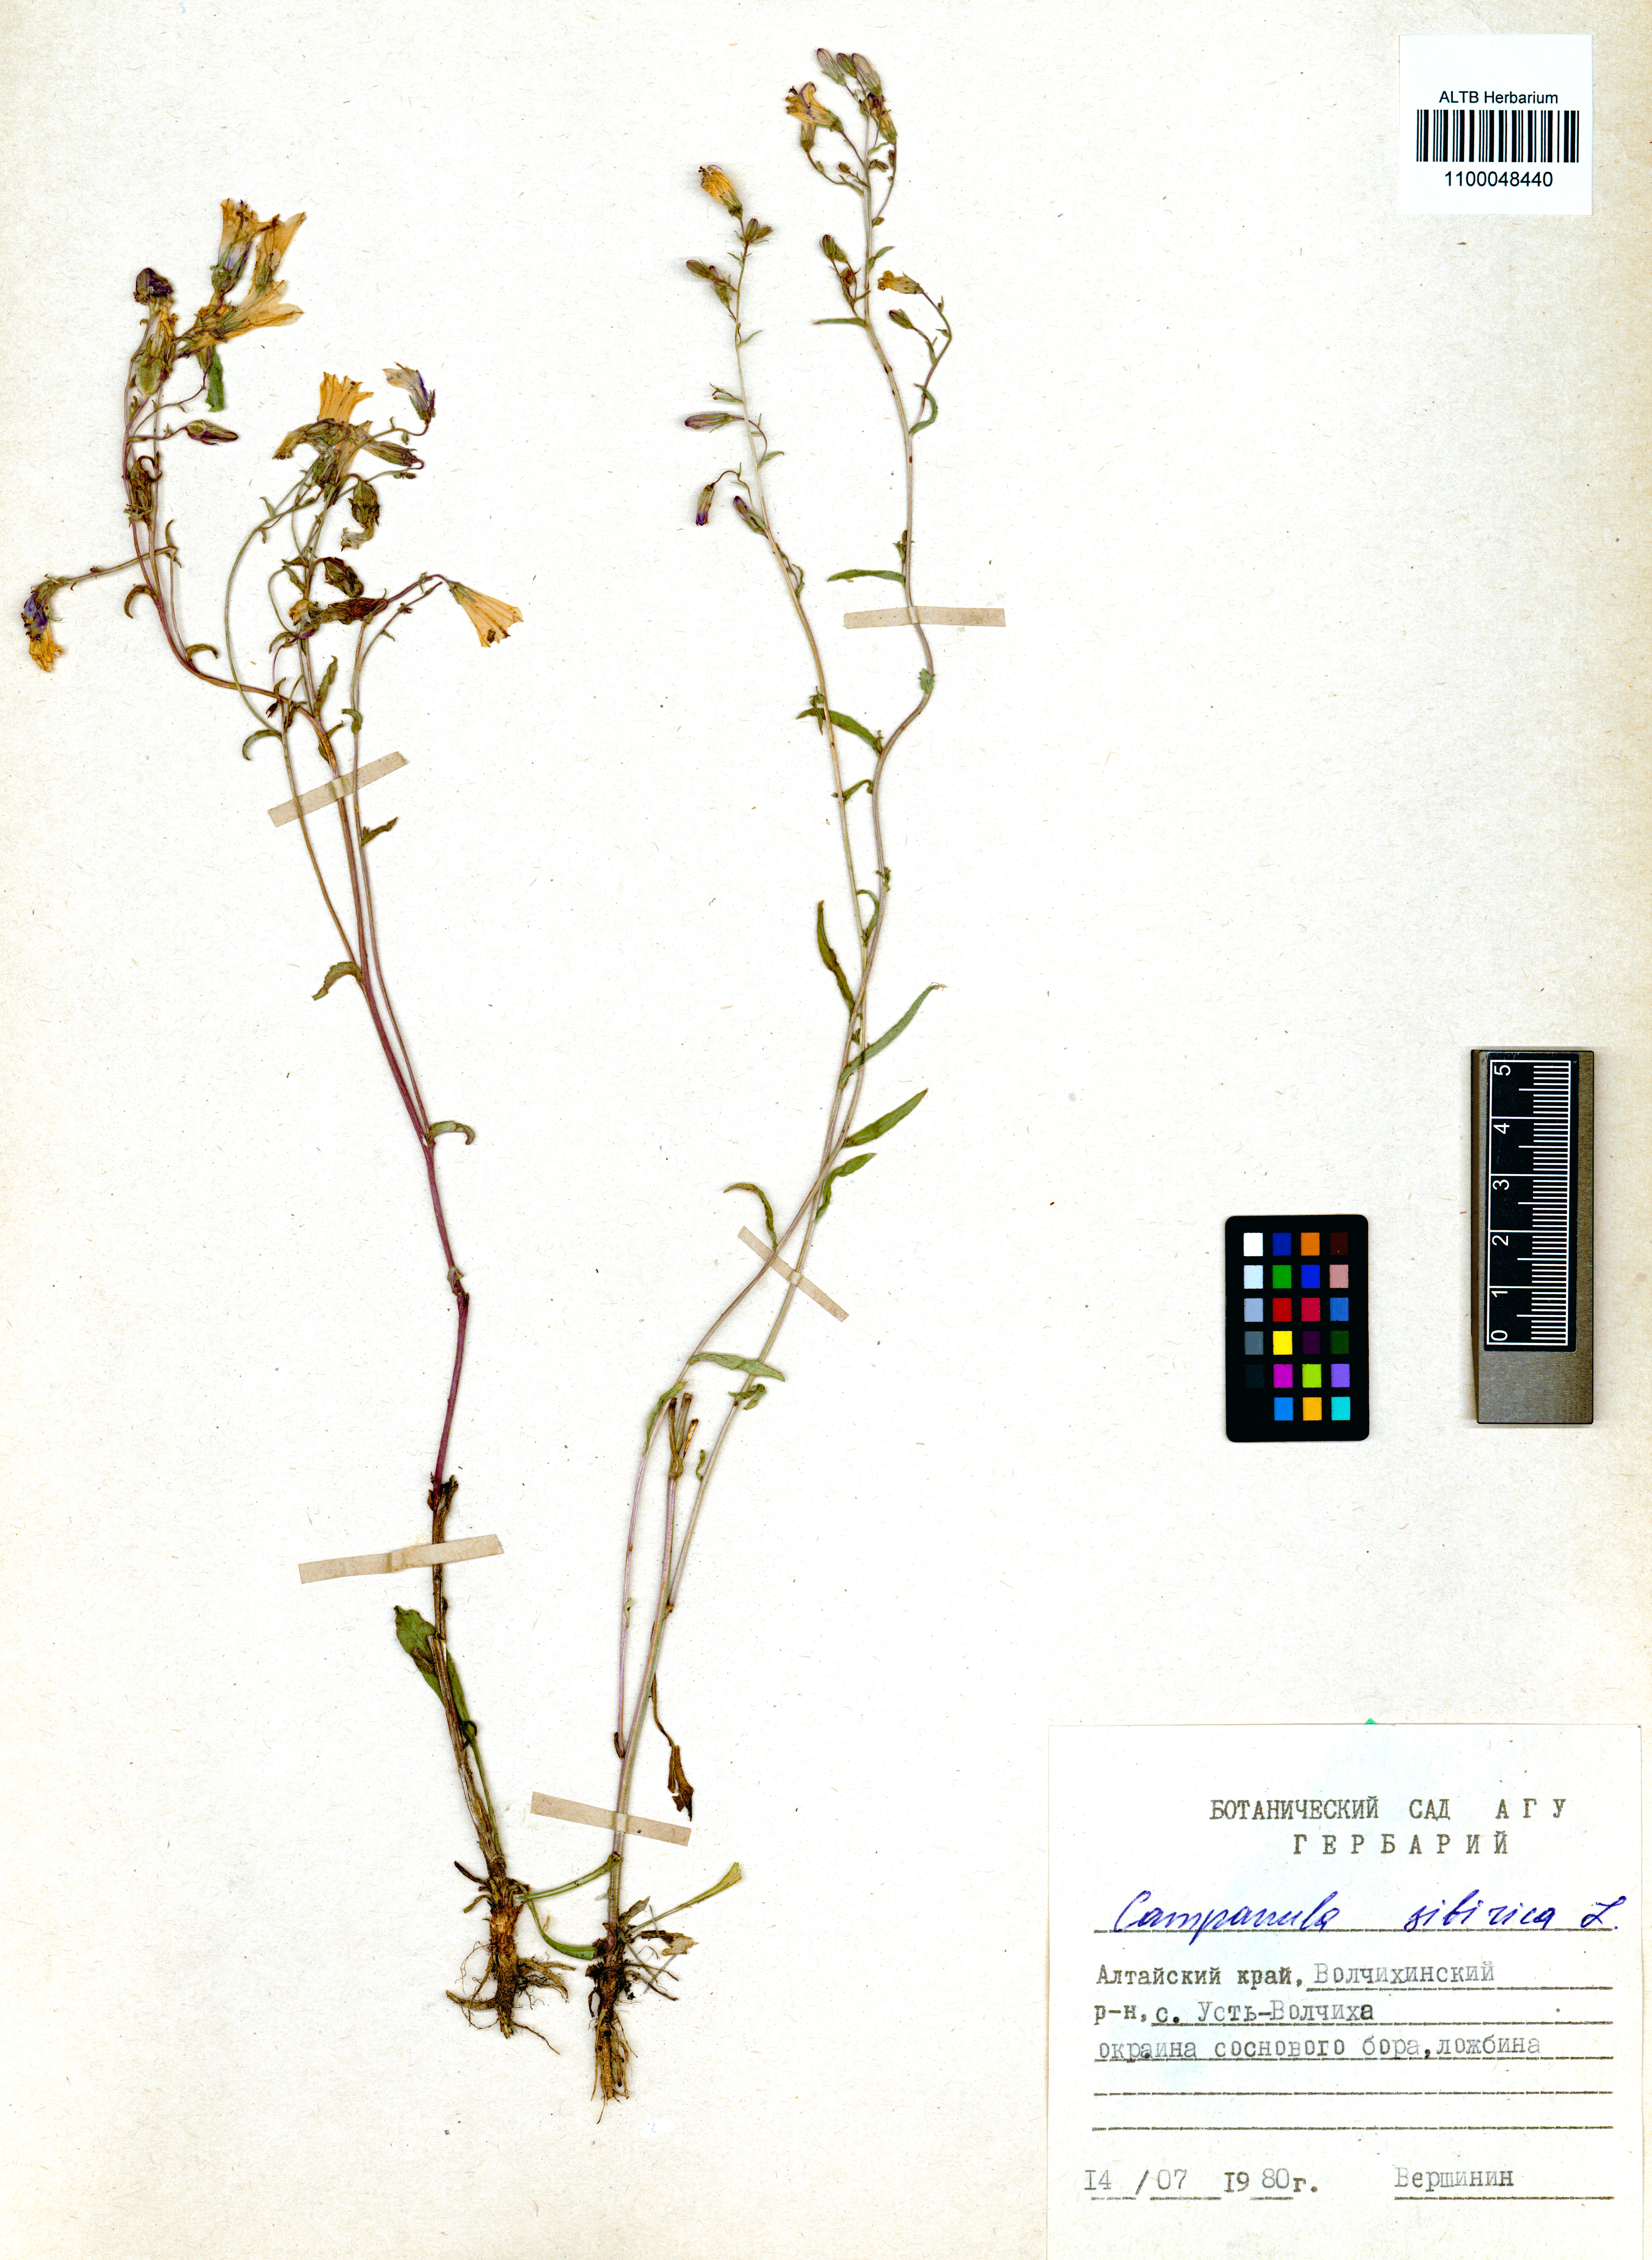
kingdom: Plantae
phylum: Tracheophyta
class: Magnoliopsida
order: Asterales
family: Campanulaceae
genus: Campanula
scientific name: Campanula sibirica
